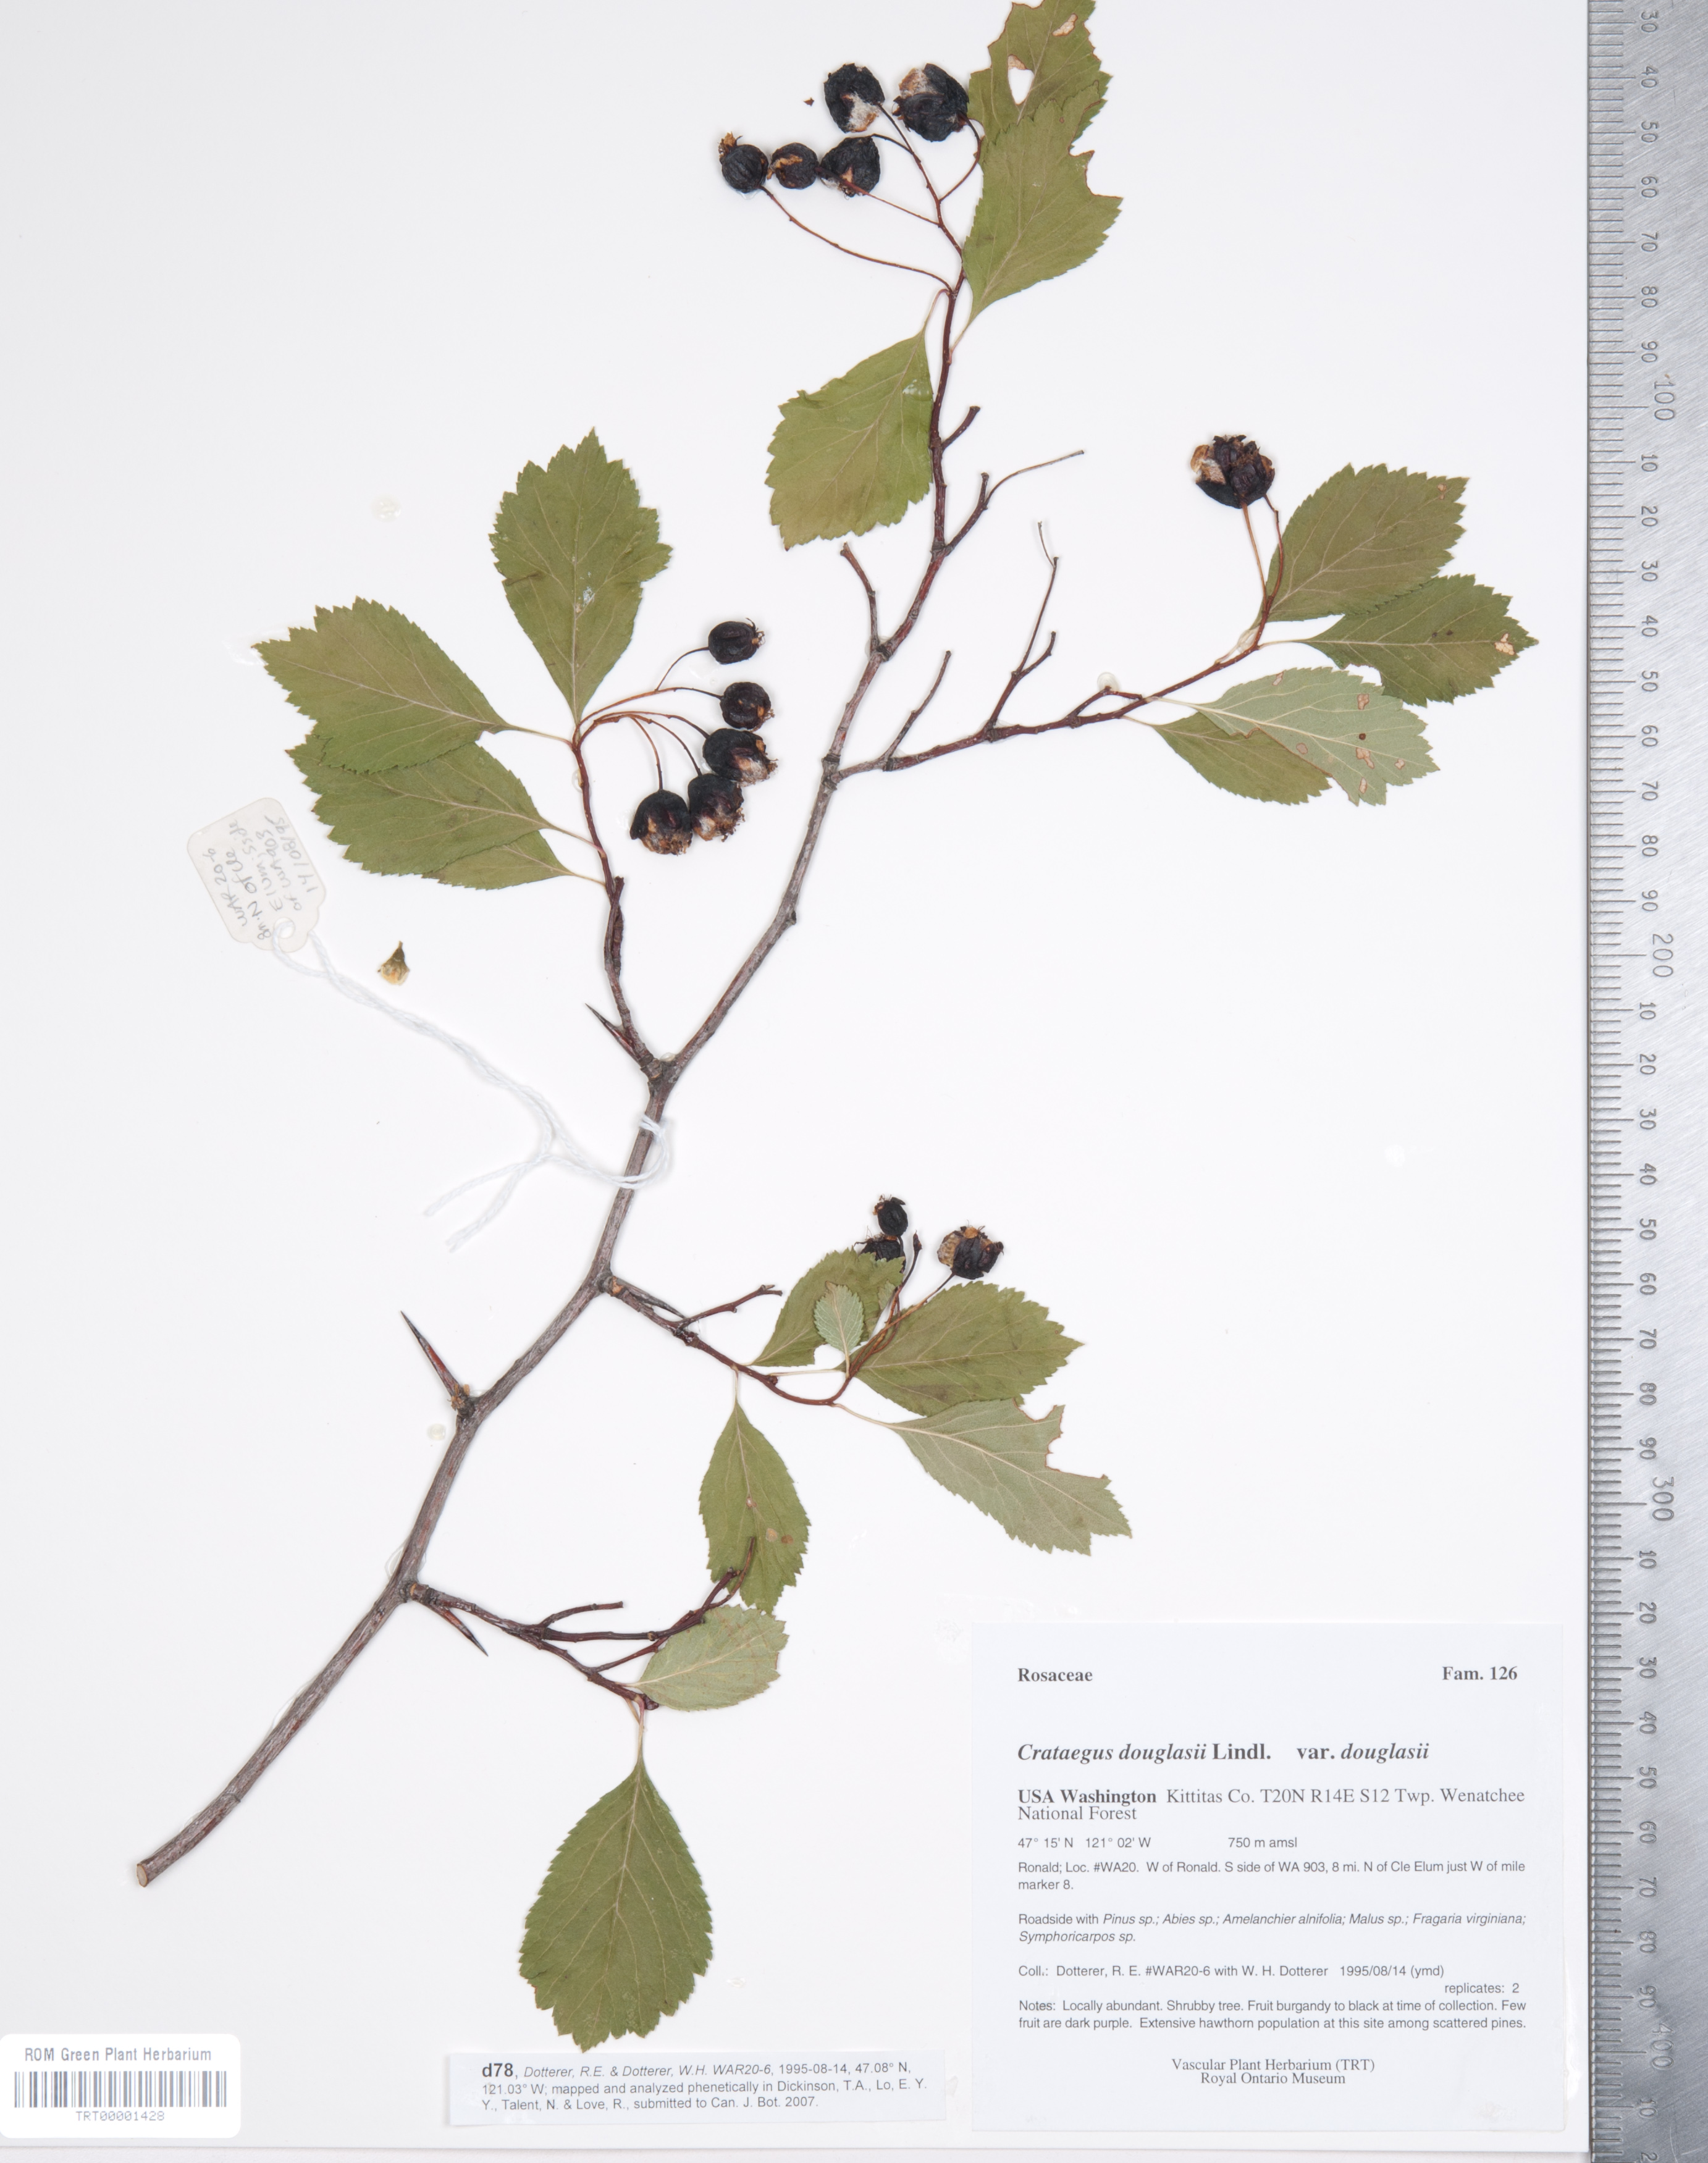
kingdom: Plantae
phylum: Tracheophyta
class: Magnoliopsida
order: Rosales
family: Rosaceae
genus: Crataegus
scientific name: Crataegus douglasii
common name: Black hawthorn
